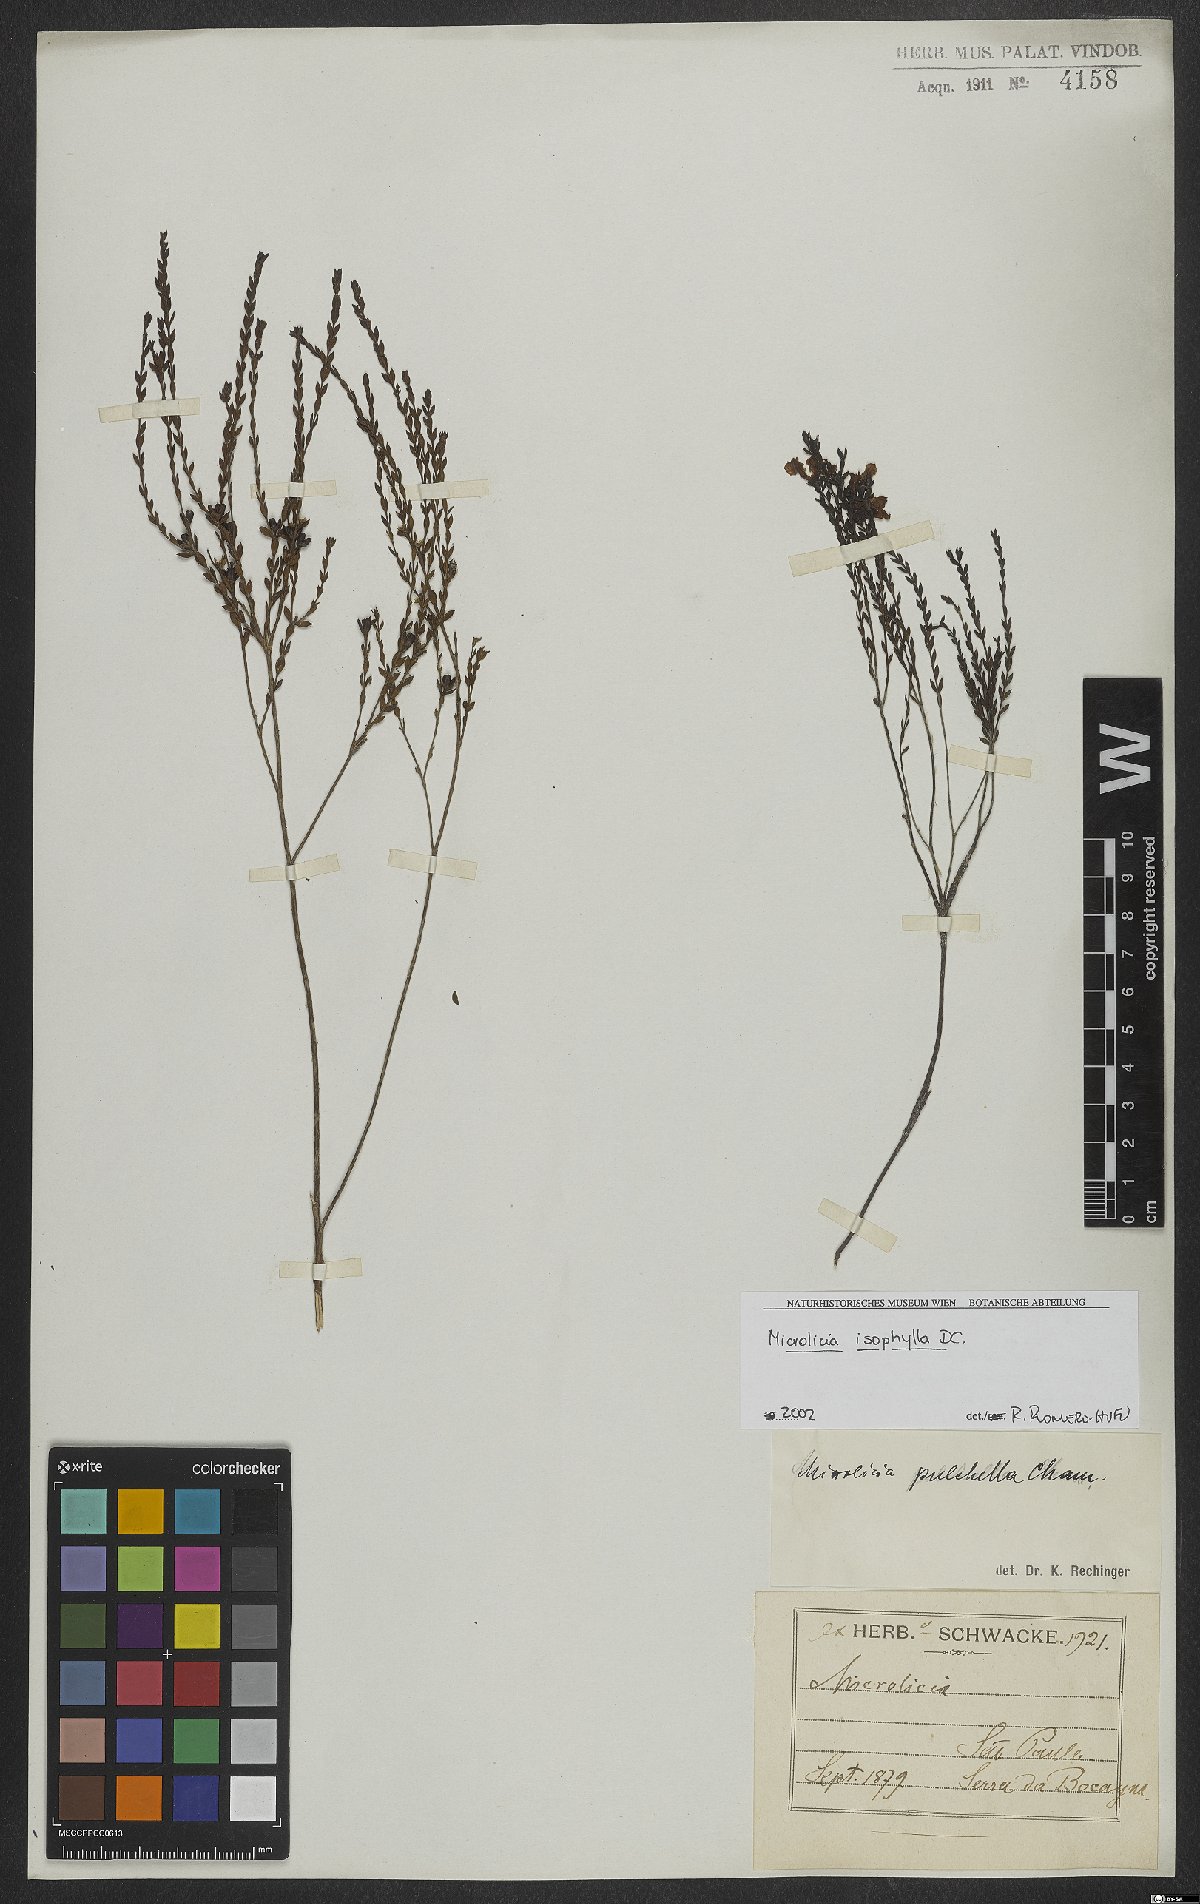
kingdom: Plantae
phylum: Tracheophyta
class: Magnoliopsida
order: Myrtales
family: Melastomataceae
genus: Microlicia
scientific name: Microlicia isophylla
